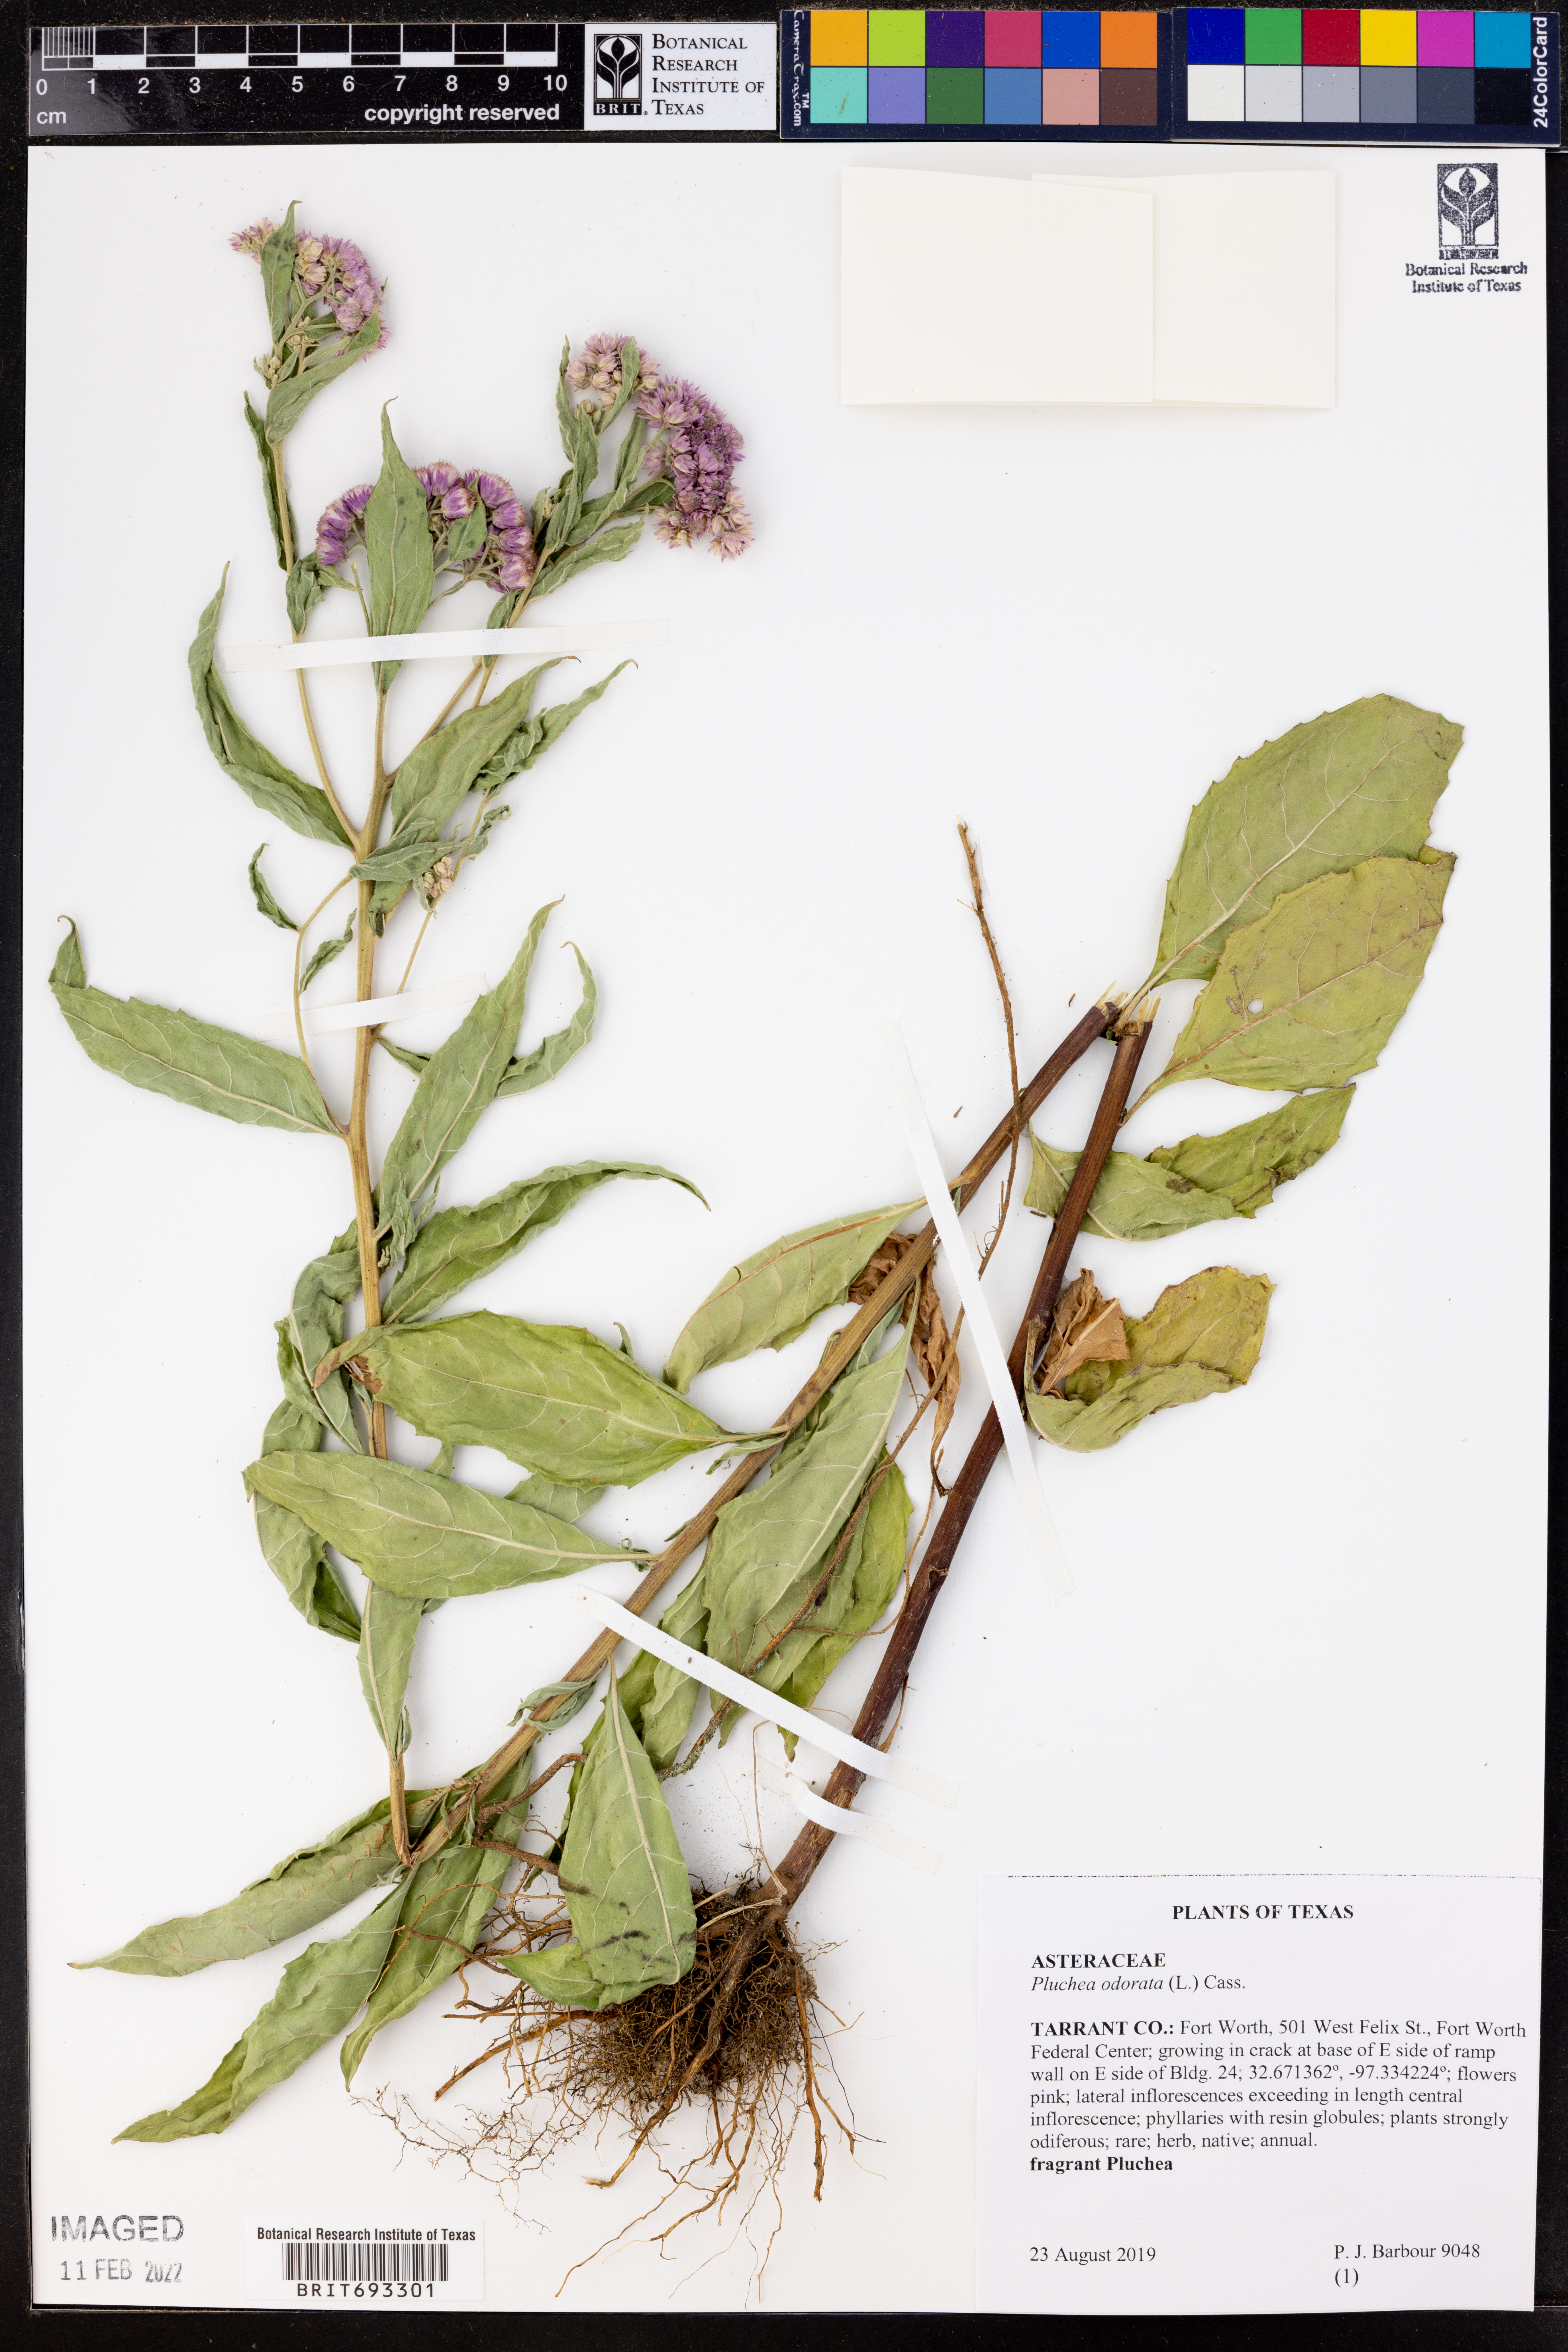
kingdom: Plantae
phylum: Tracheophyta
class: Magnoliopsida
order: Asterales
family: Asteraceae
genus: Pluchea
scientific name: Pluchea odorata
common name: Saltmarsh fleabane
